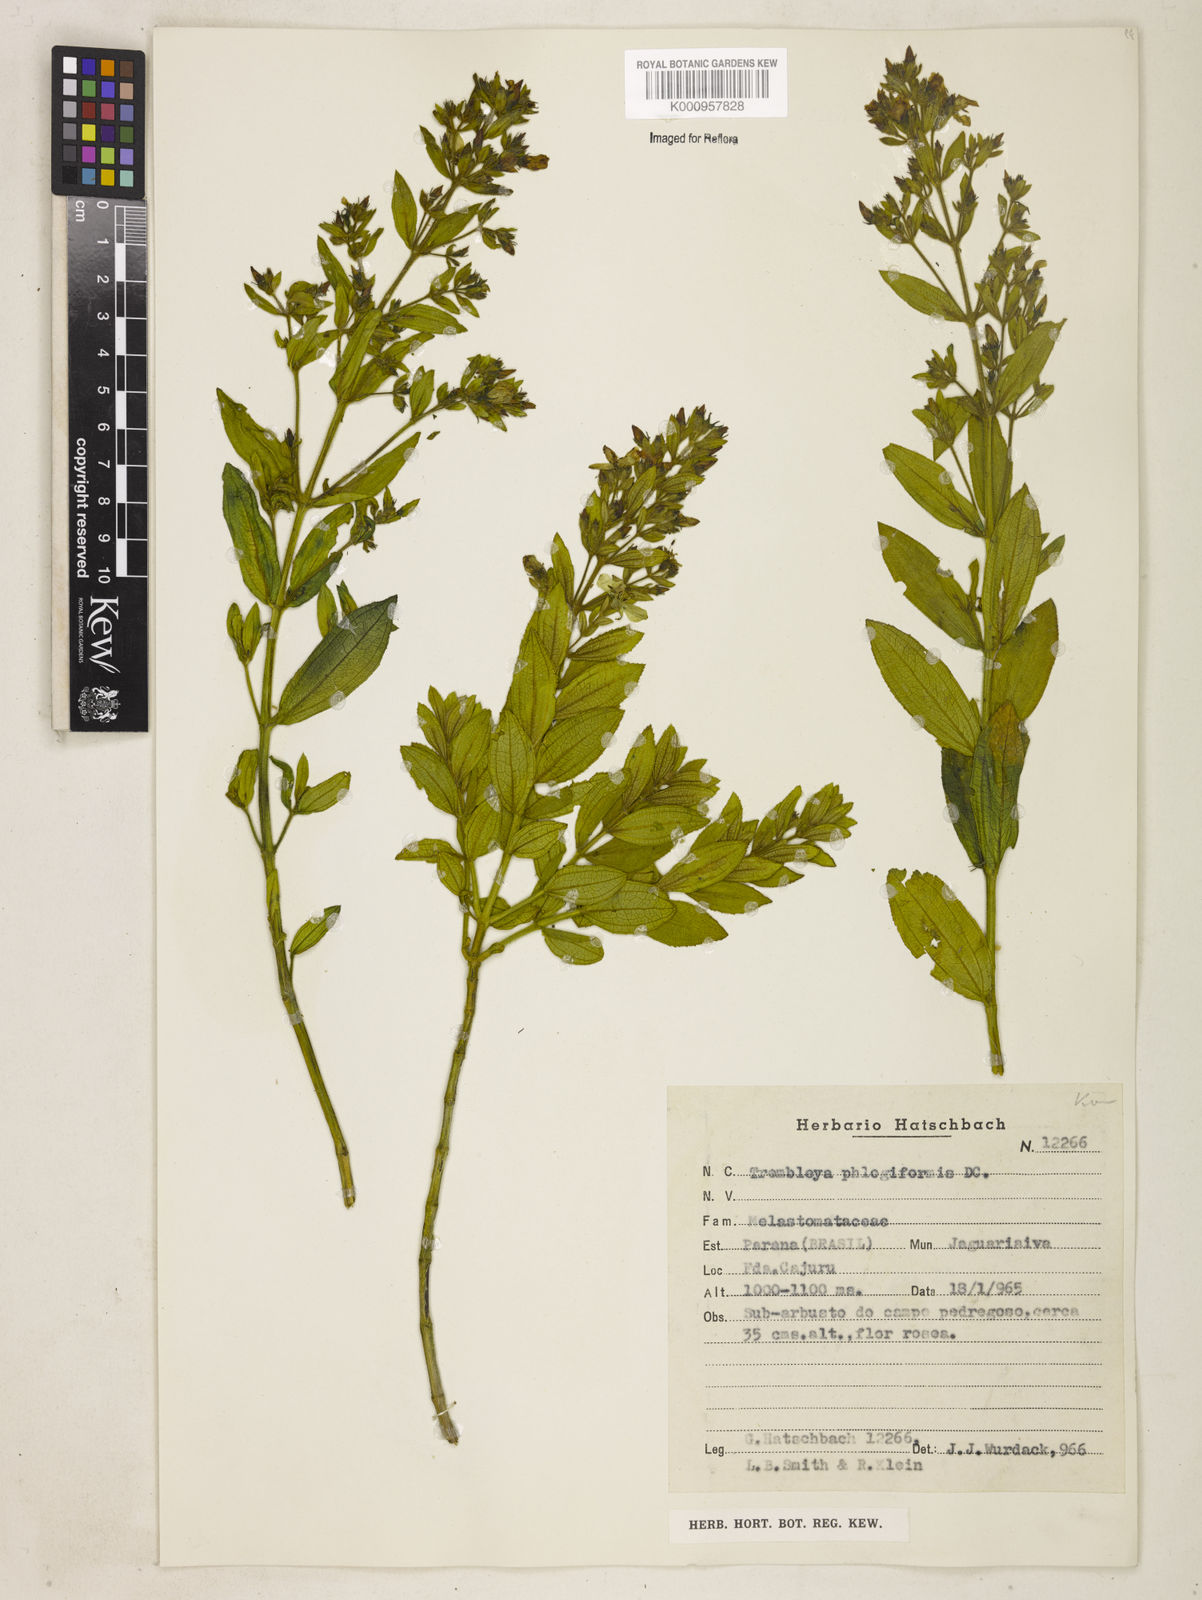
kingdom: Plantae
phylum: Tracheophyta
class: Magnoliopsida
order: Myrtales
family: Melastomataceae
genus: Microlicia
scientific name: Microlicia phlogiformis
